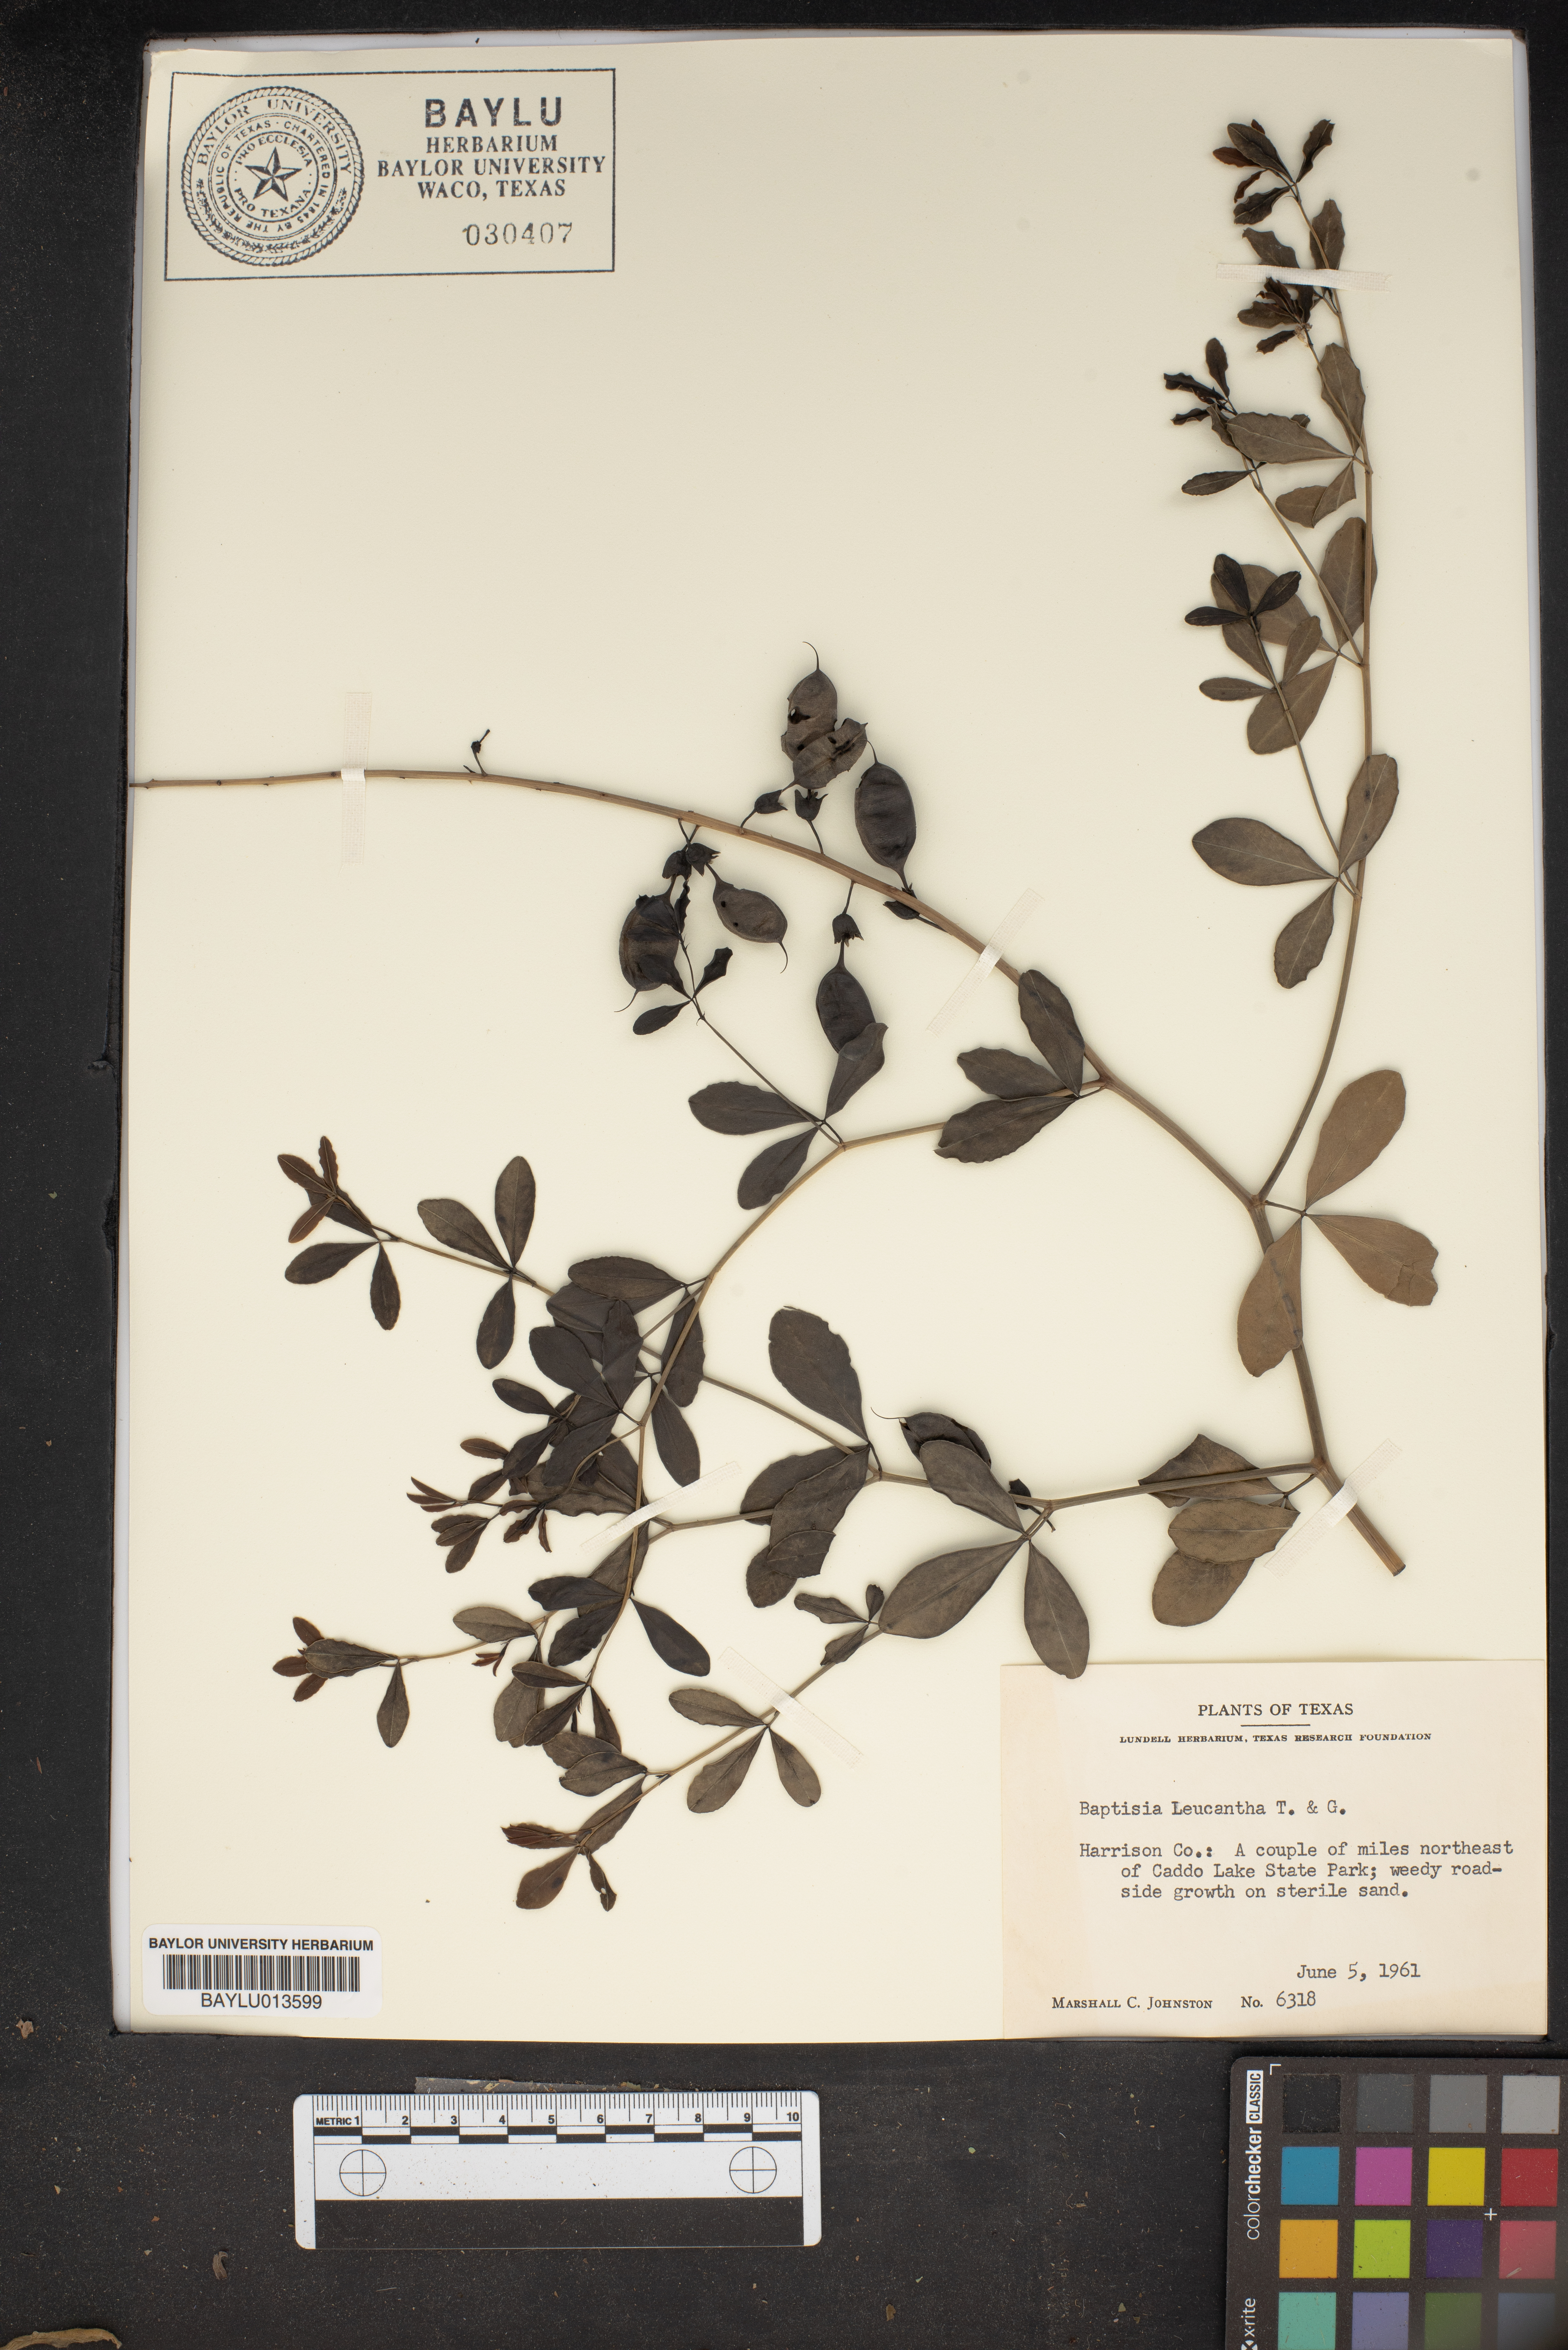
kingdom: Plantae
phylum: Tracheophyta
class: Magnoliopsida
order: Fabales
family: Fabaceae
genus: Baptisia
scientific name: Baptisia alba
